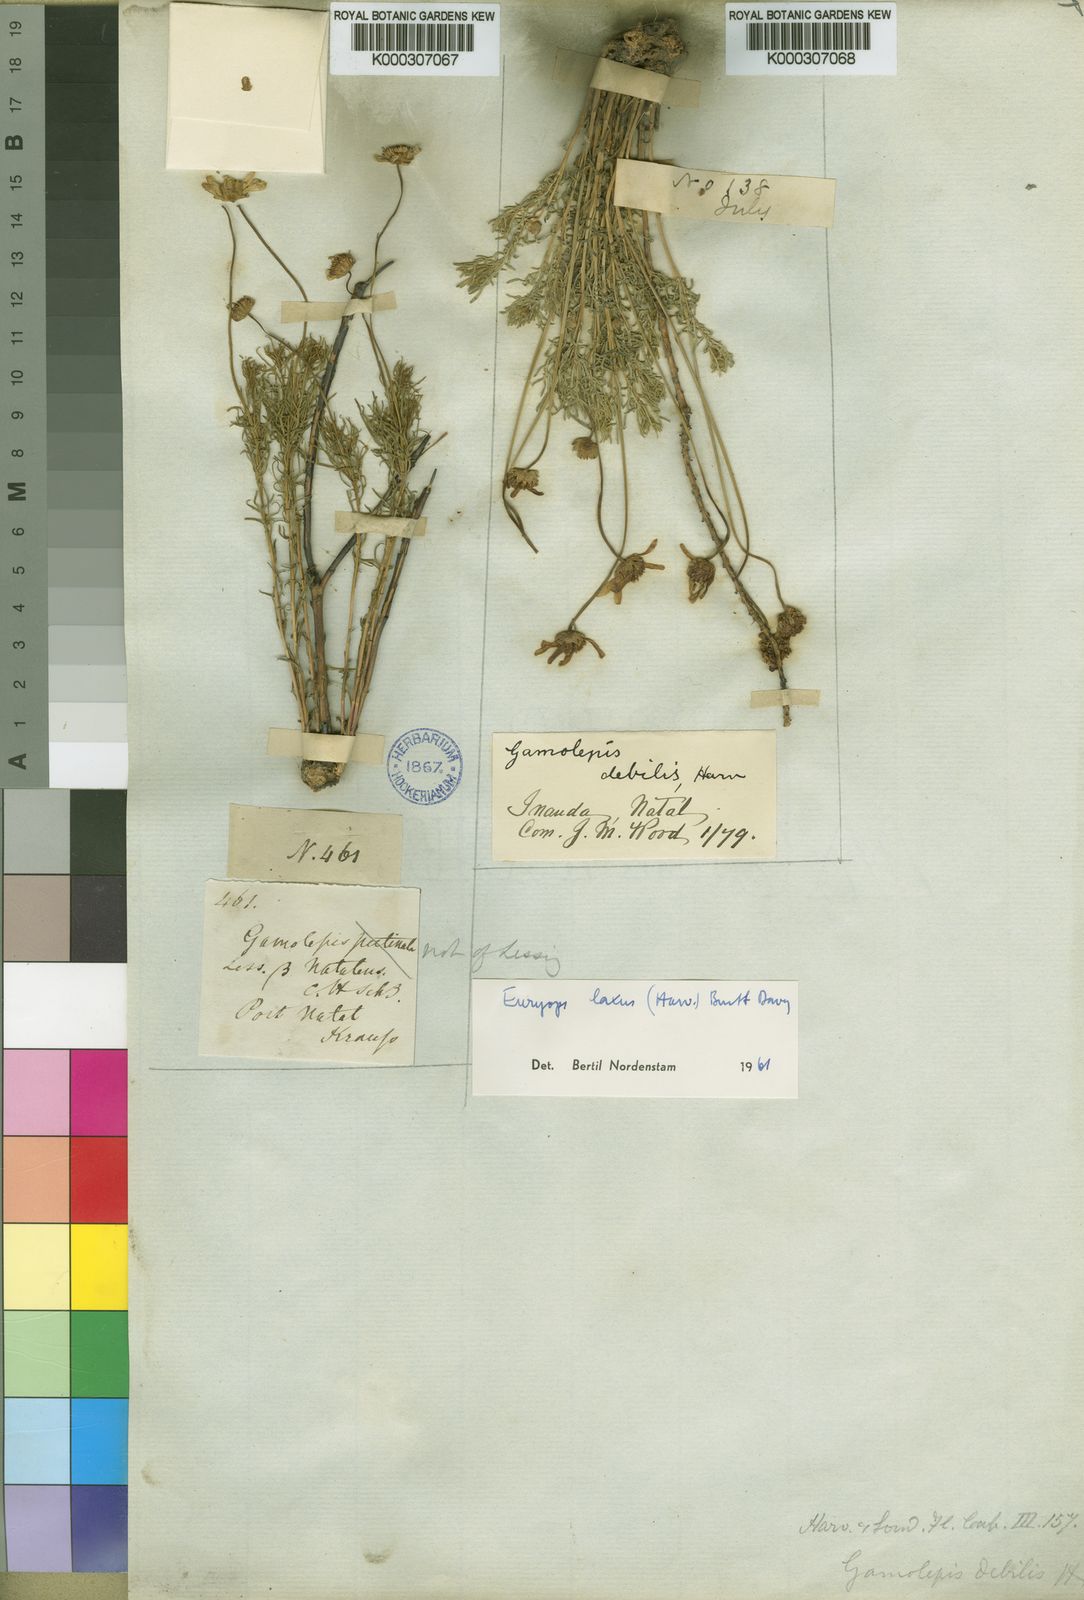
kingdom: Plantae
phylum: Tracheophyta
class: Magnoliopsida
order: Asterales
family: Asteraceae
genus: Euryops
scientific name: Euryops laxus
